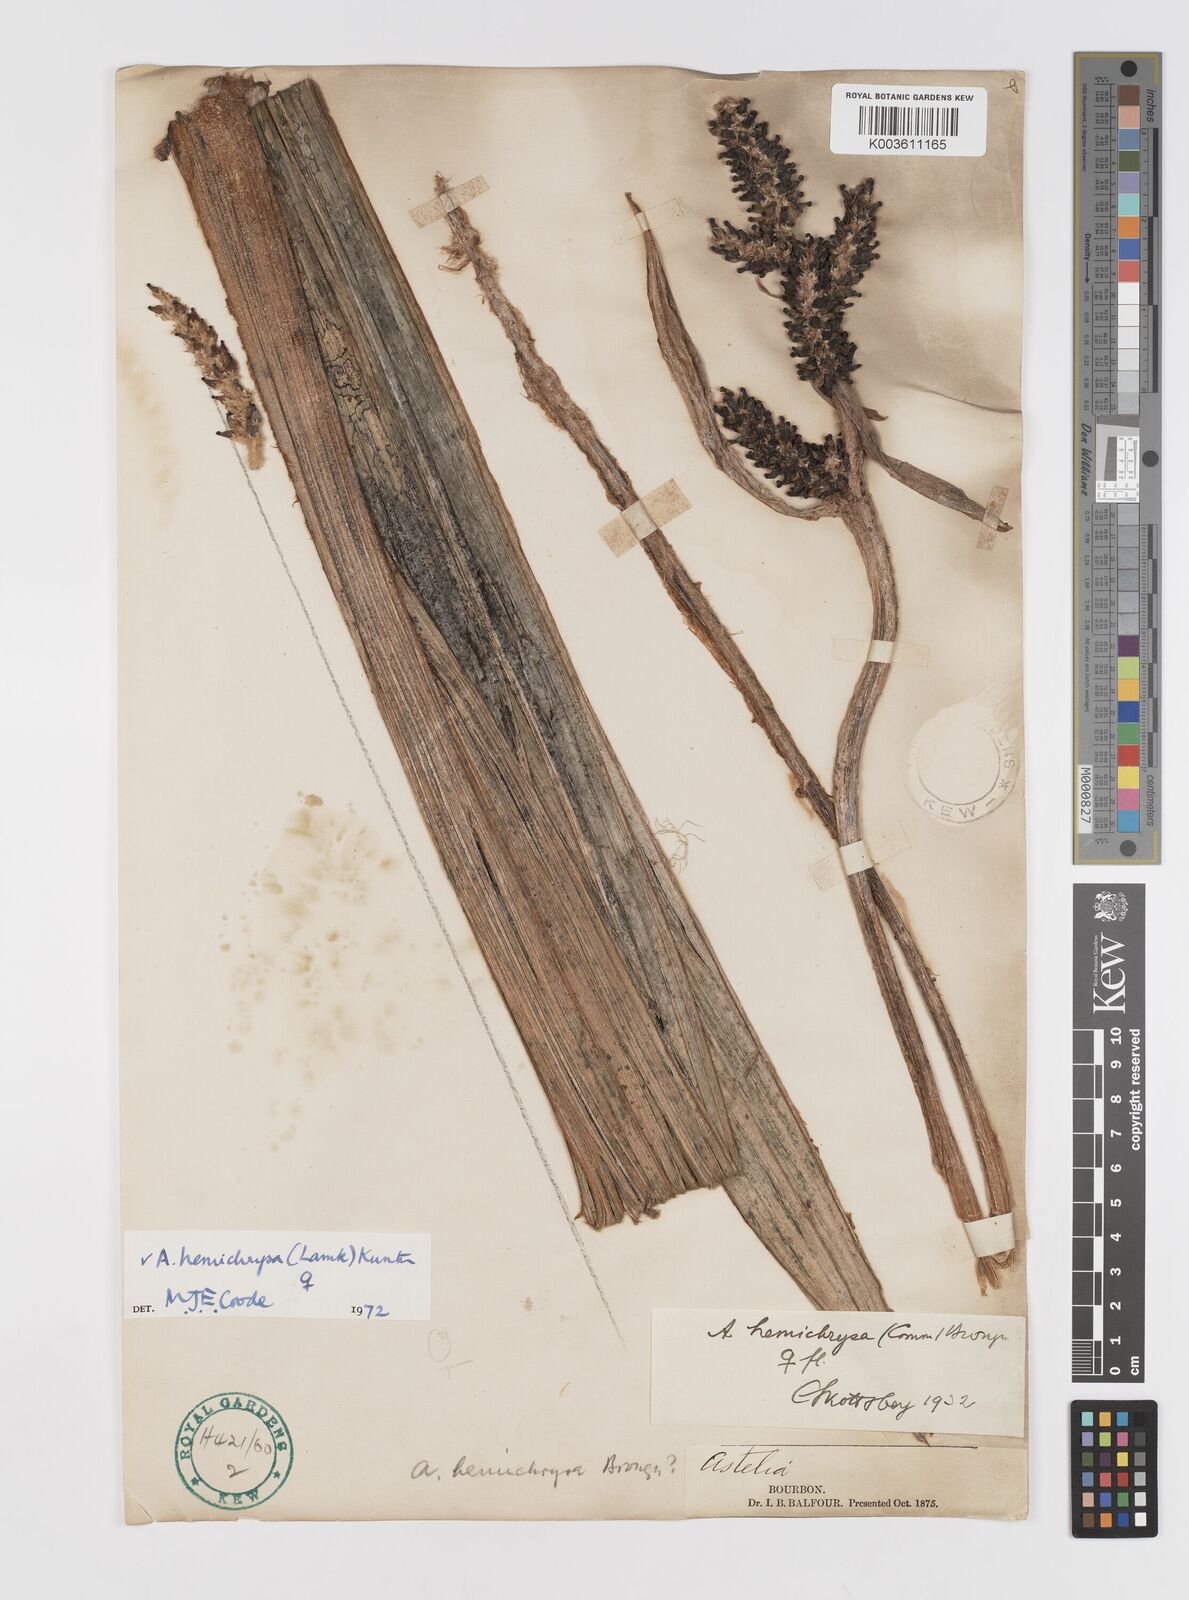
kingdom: Plantae
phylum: Tracheophyta
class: Liliopsida
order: Asparagales
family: Asteliaceae
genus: Astelia
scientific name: Astelia hemichrysa
